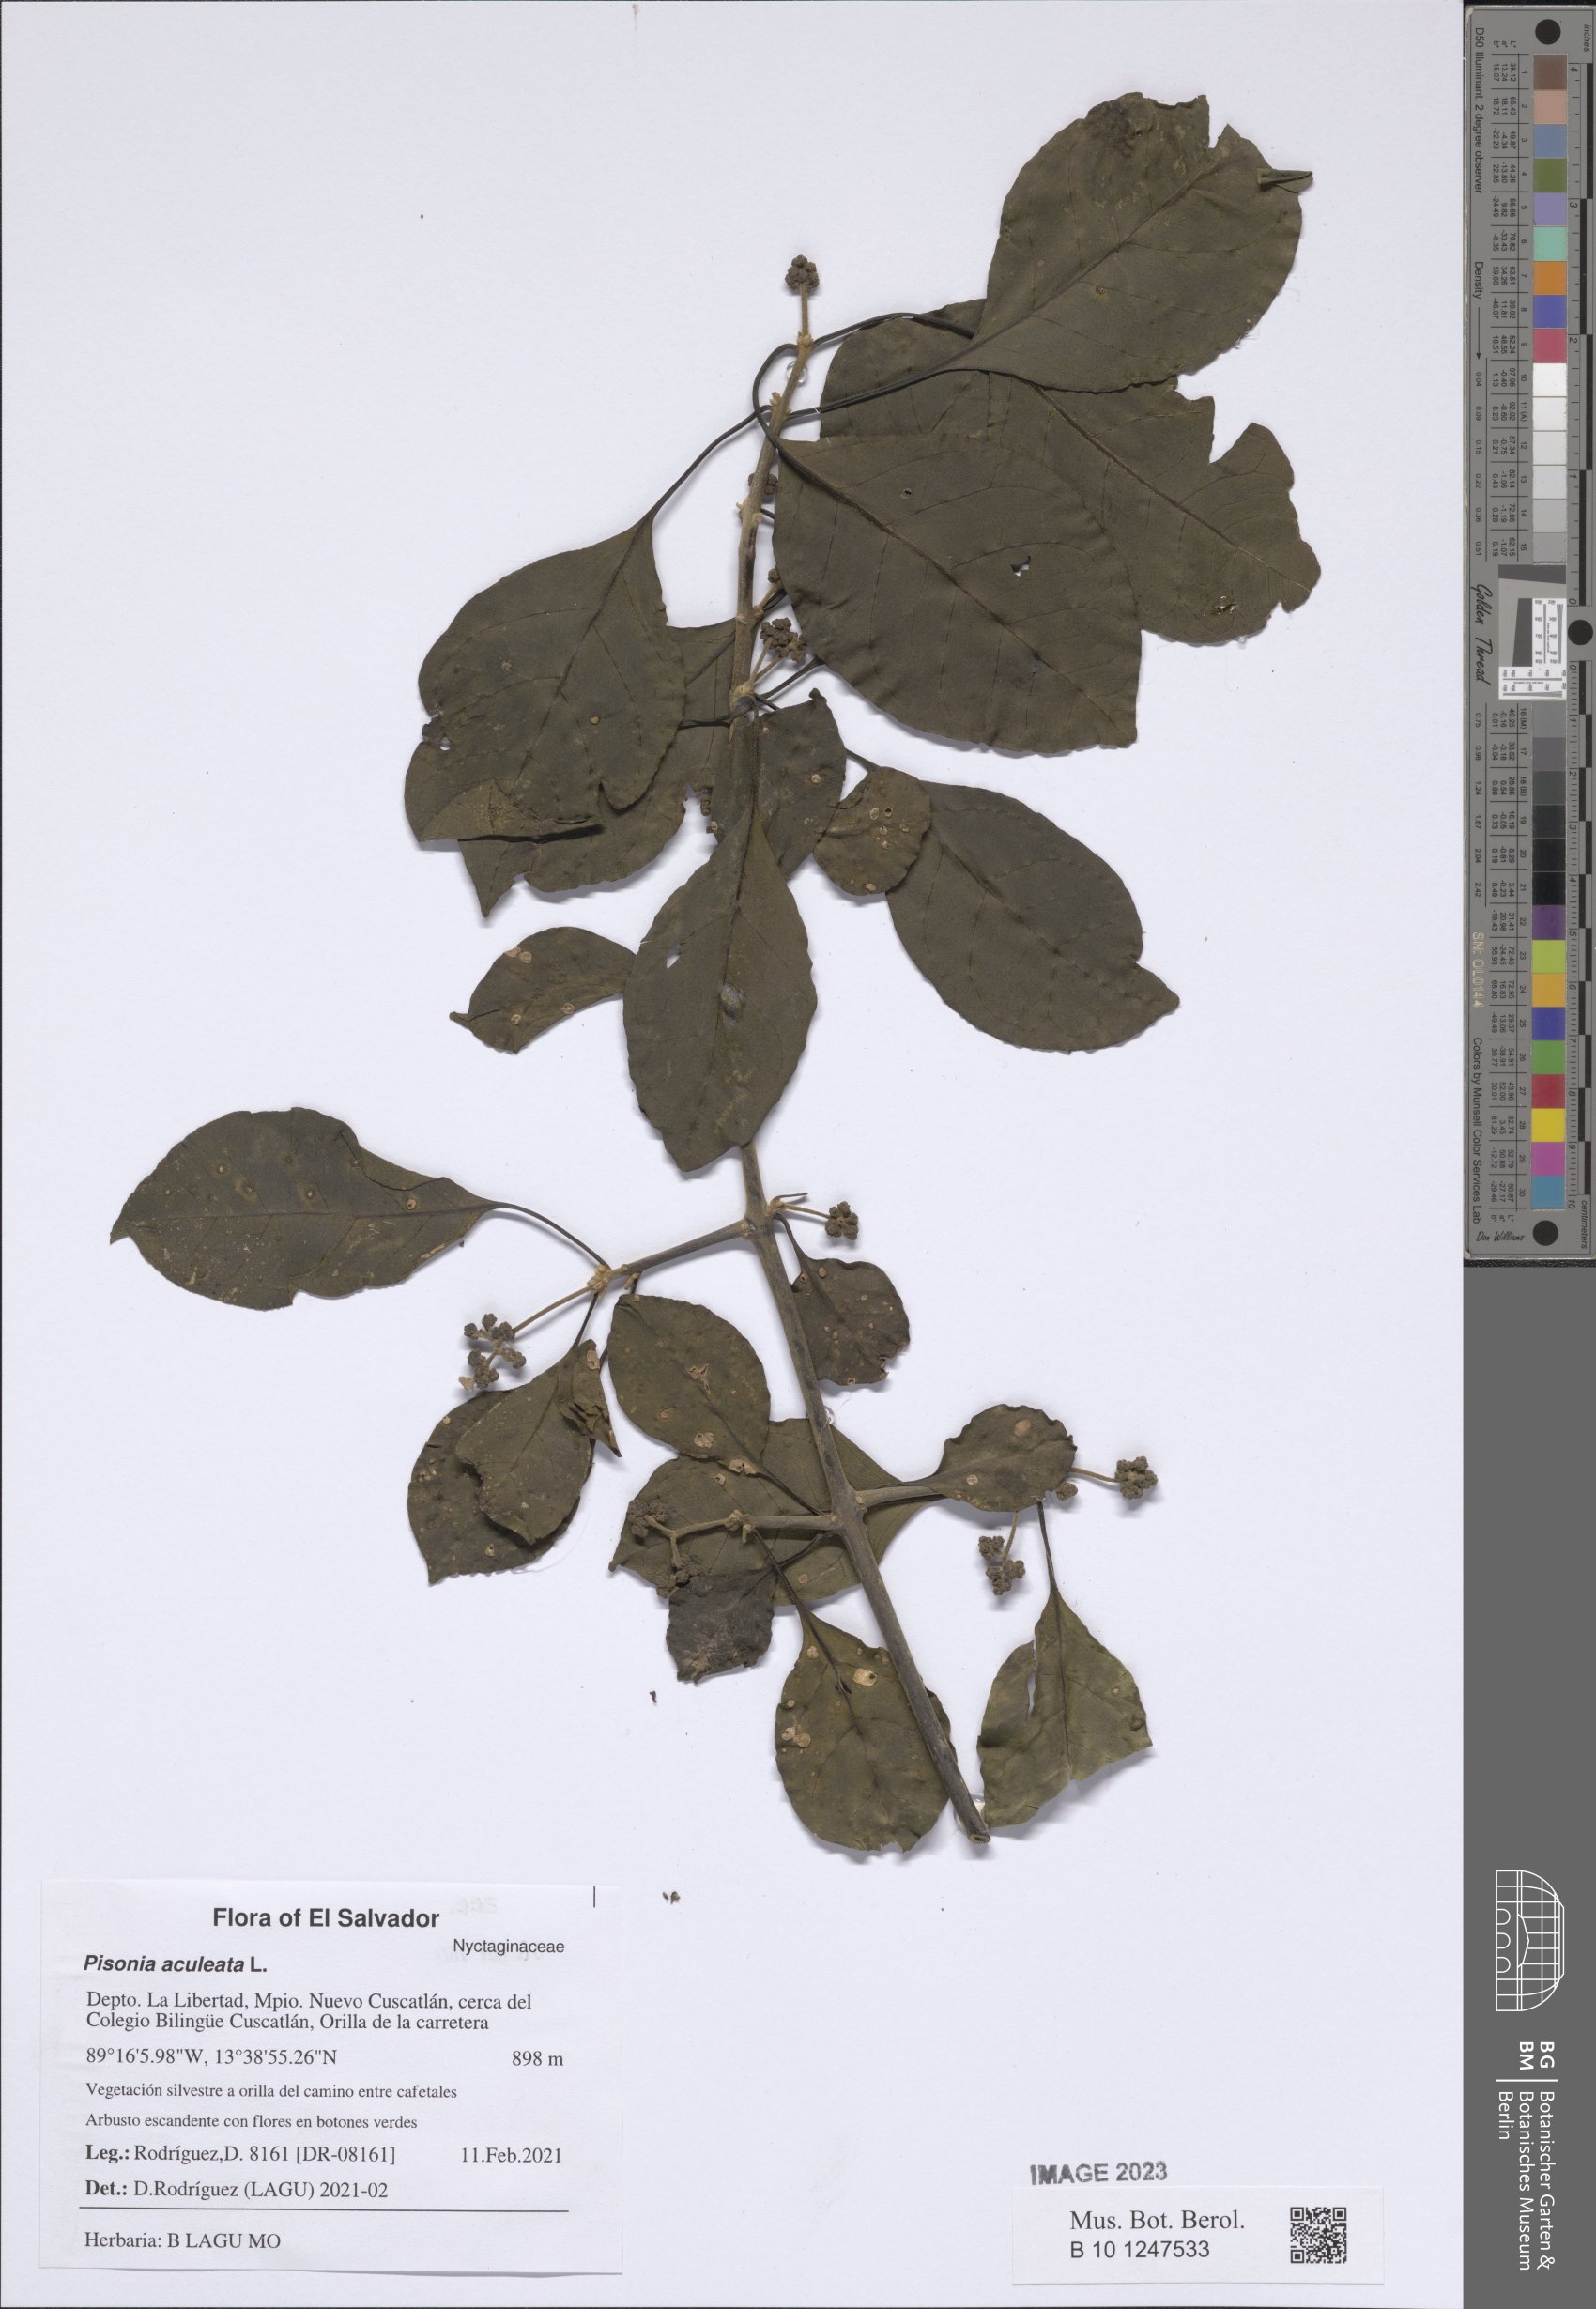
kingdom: Plantae
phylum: Tracheophyta
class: Magnoliopsida
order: Caryophyllales
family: Nyctaginaceae
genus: Pisonia
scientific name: Pisonia aculeata
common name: Cockspur vine
